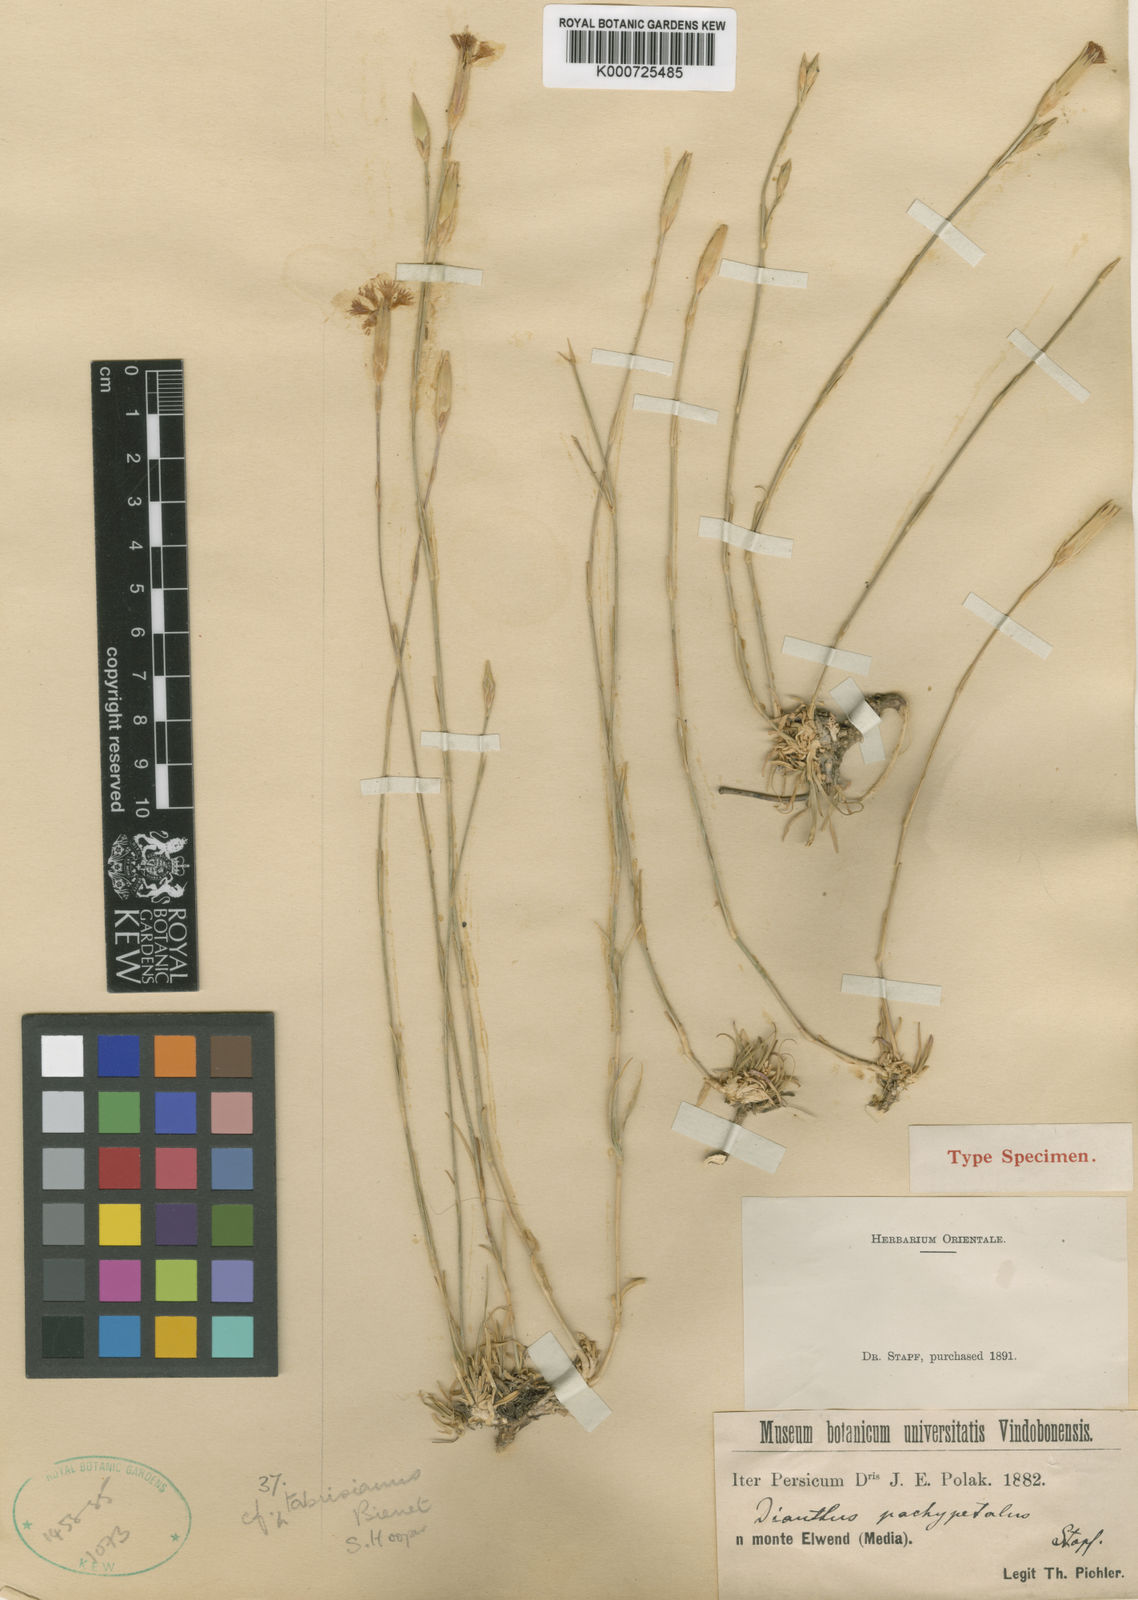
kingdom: Plantae
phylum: Tracheophyta
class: Magnoliopsida
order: Caryophyllales
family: Caryophyllaceae
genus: Dianthus
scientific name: Dianthus tabrisianus
